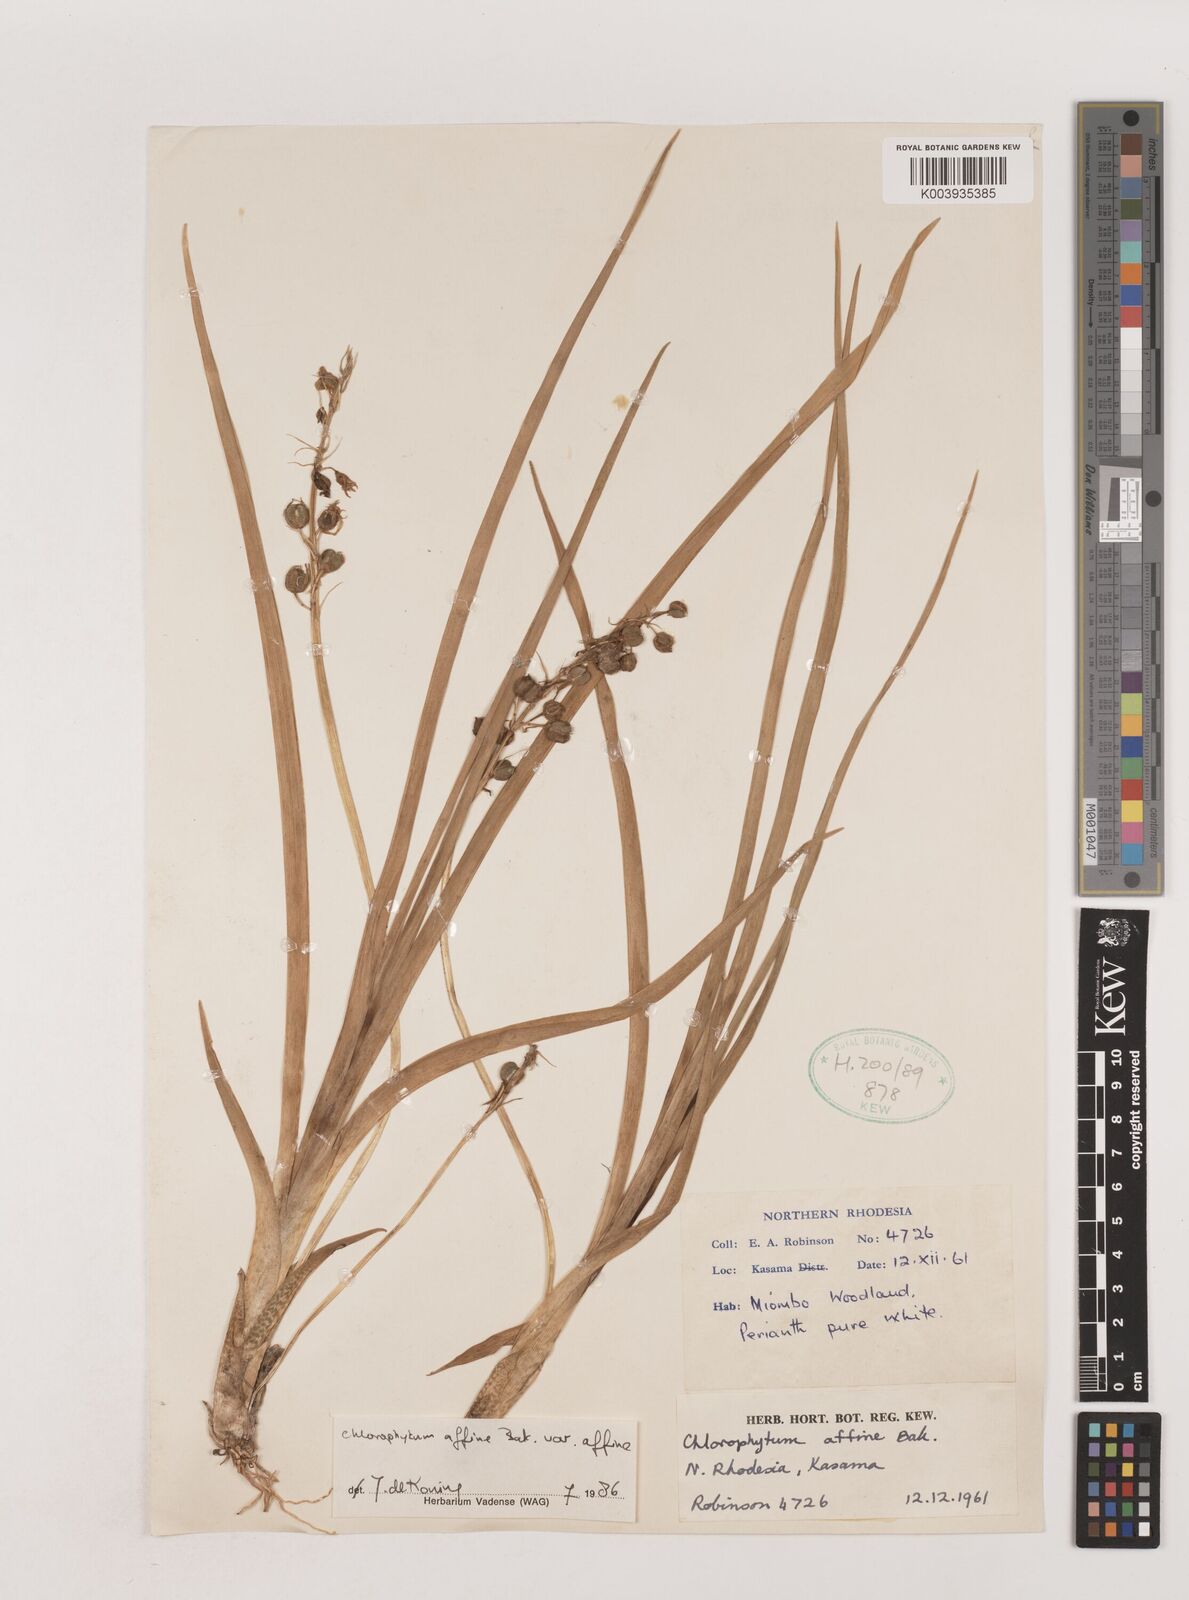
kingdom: Plantae
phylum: Tracheophyta
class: Liliopsida
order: Asparagales
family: Asparagaceae
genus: Chlorophytum
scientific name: Chlorophytum affine
